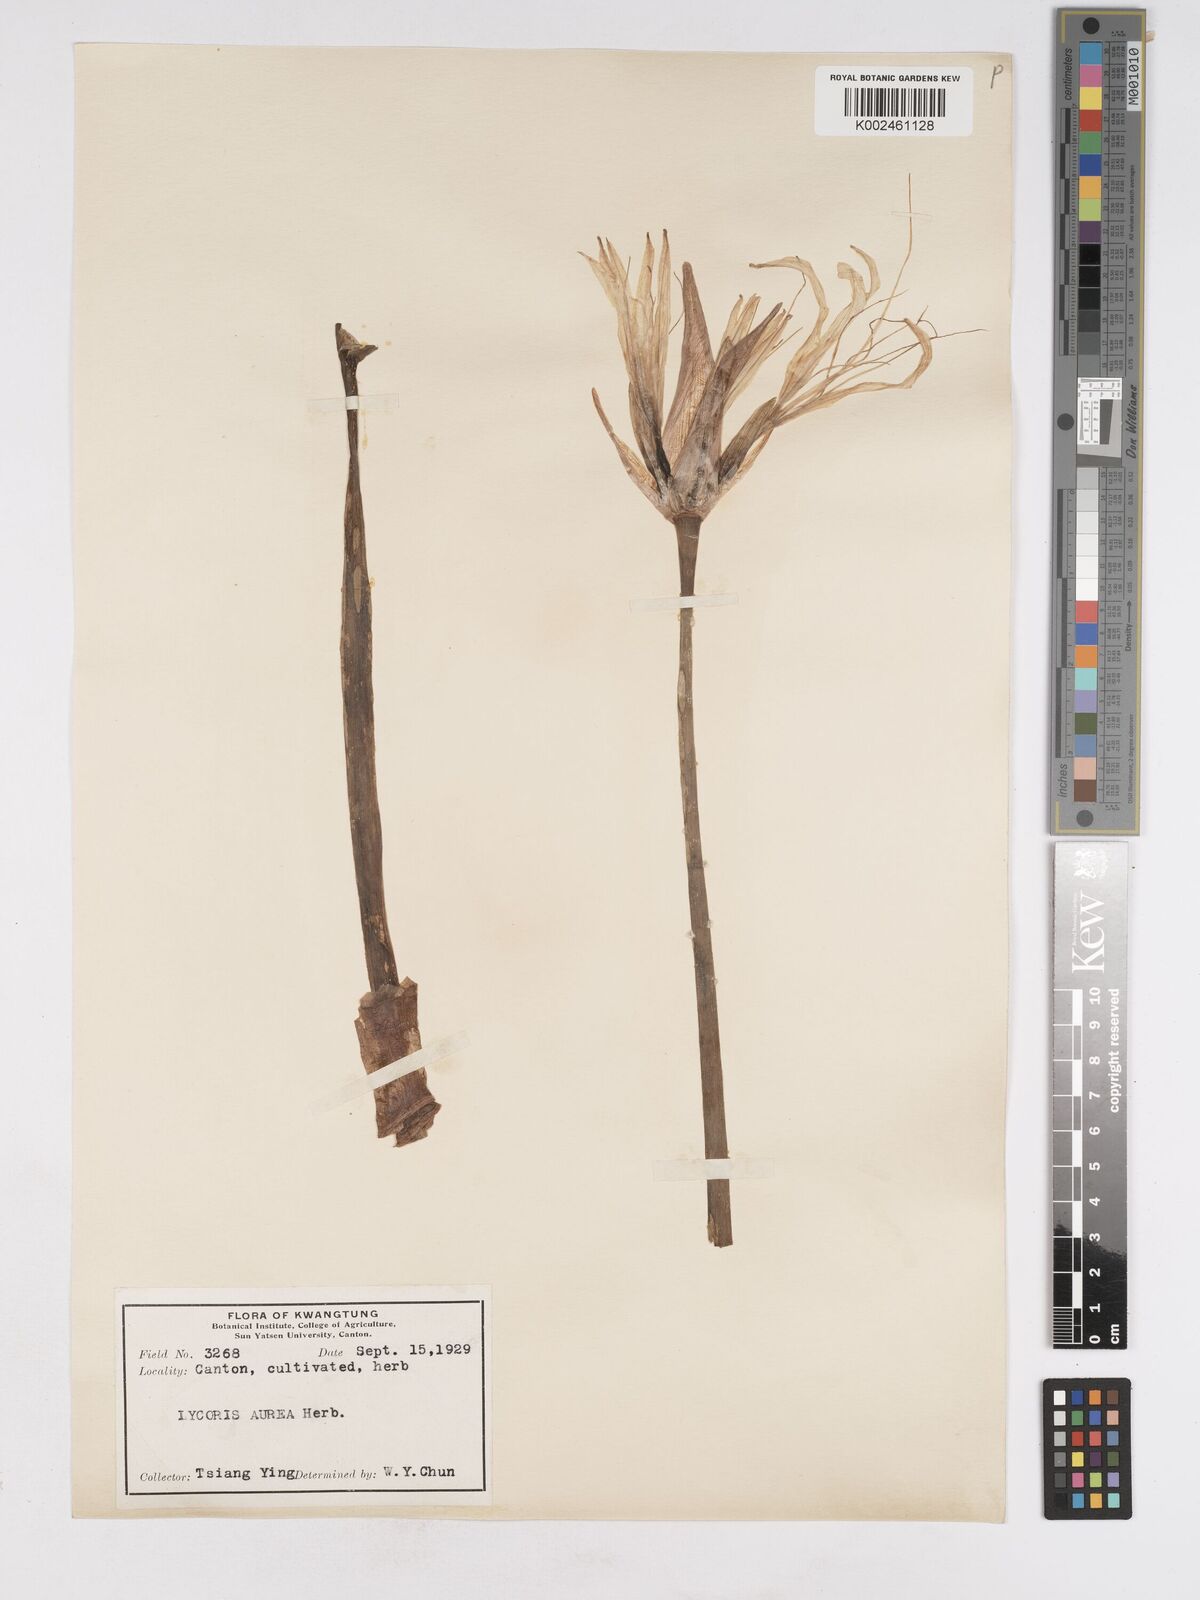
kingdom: Plantae
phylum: Tracheophyta
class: Liliopsida
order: Asparagales
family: Amaryllidaceae
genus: Lycoris
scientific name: Lycoris aurea
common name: Golden hurricane-lily
